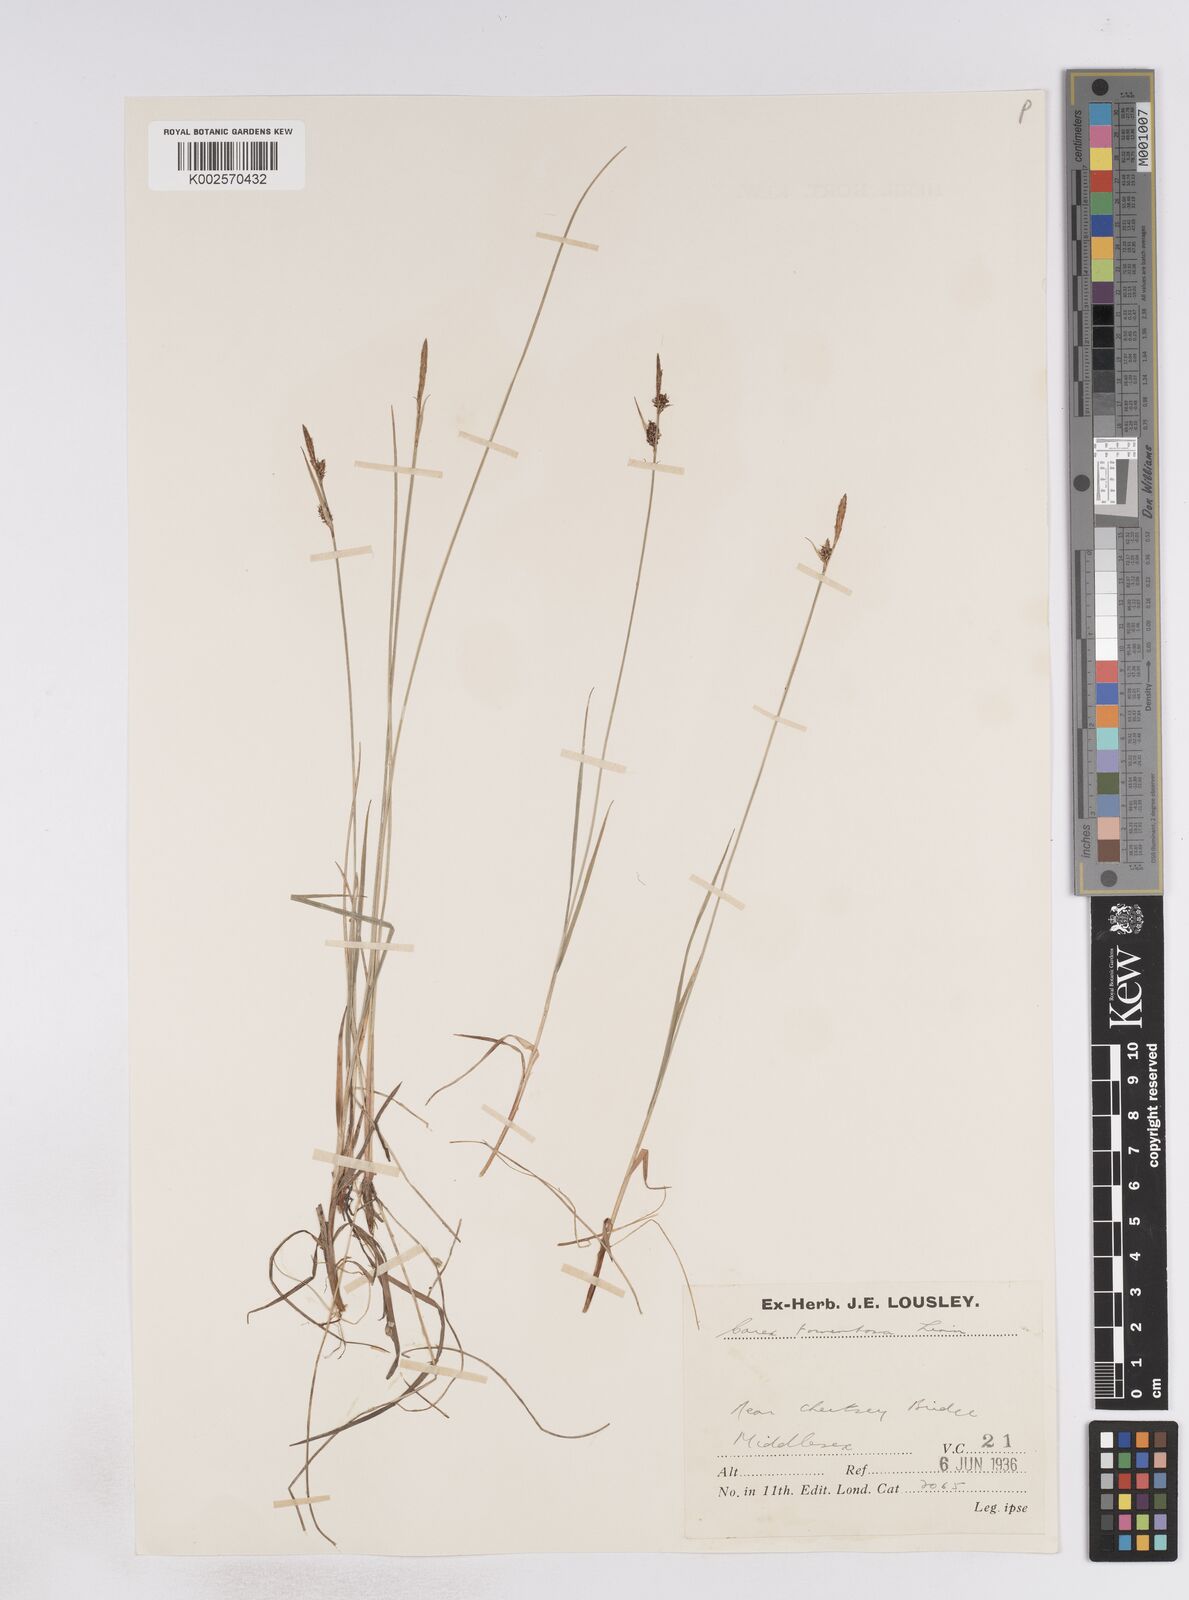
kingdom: Plantae
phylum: Tracheophyta
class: Liliopsida
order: Poales
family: Cyperaceae
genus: Carex
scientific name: Carex montana
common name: Soft-leaved sedge
